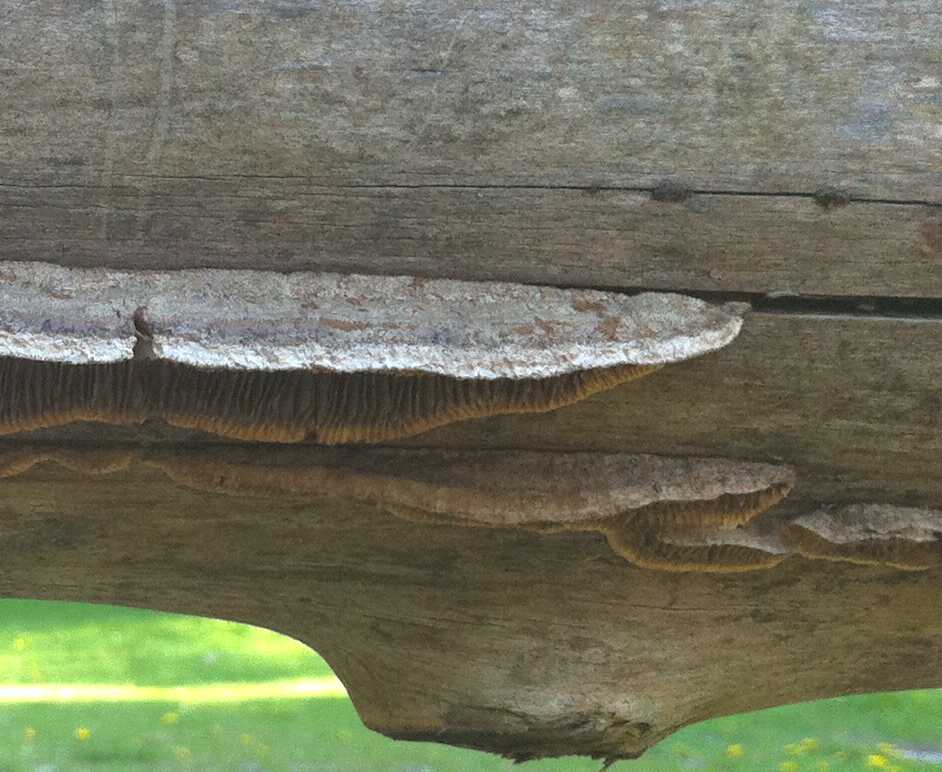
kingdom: Fungi
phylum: Basidiomycota
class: Agaricomycetes
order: Gloeophyllales
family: Gloeophyllaceae
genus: Gloeophyllum
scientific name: Gloeophyllum abietinum
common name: gran-korkhat
